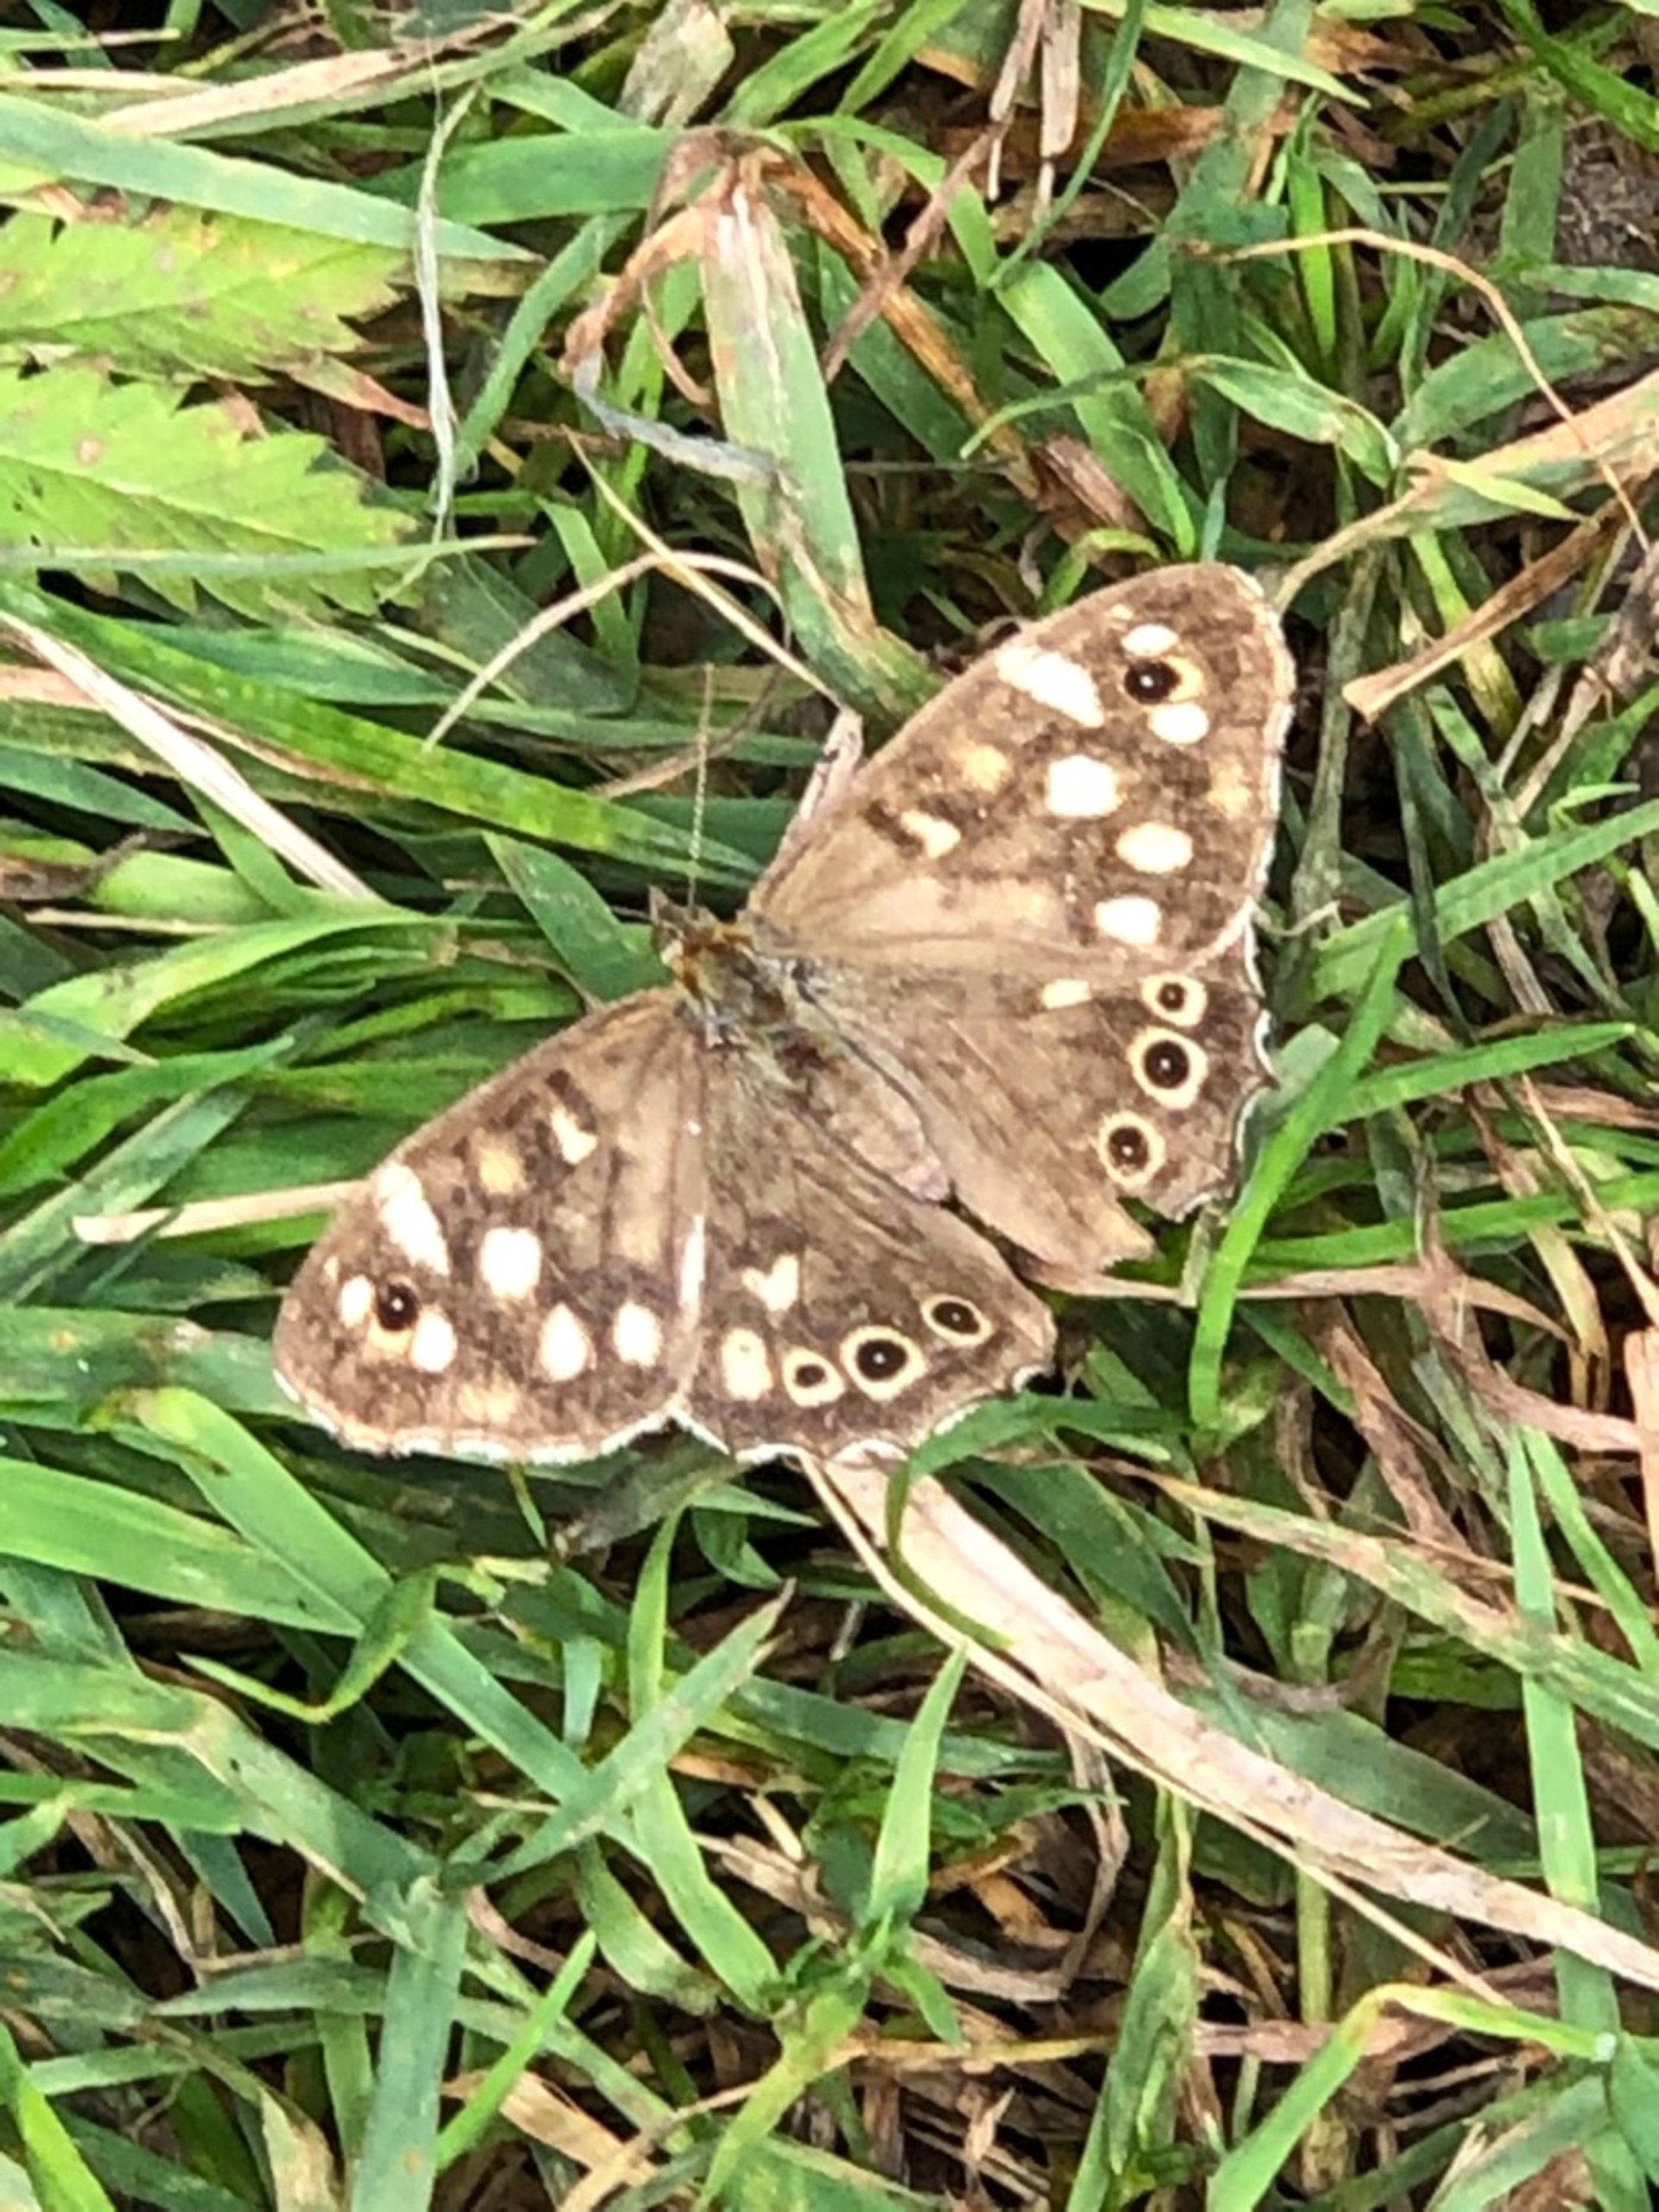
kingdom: Animalia
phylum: Arthropoda
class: Insecta
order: Lepidoptera
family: Nymphalidae
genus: Pararge
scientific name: Pararge aegeria
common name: Skovrandøje
